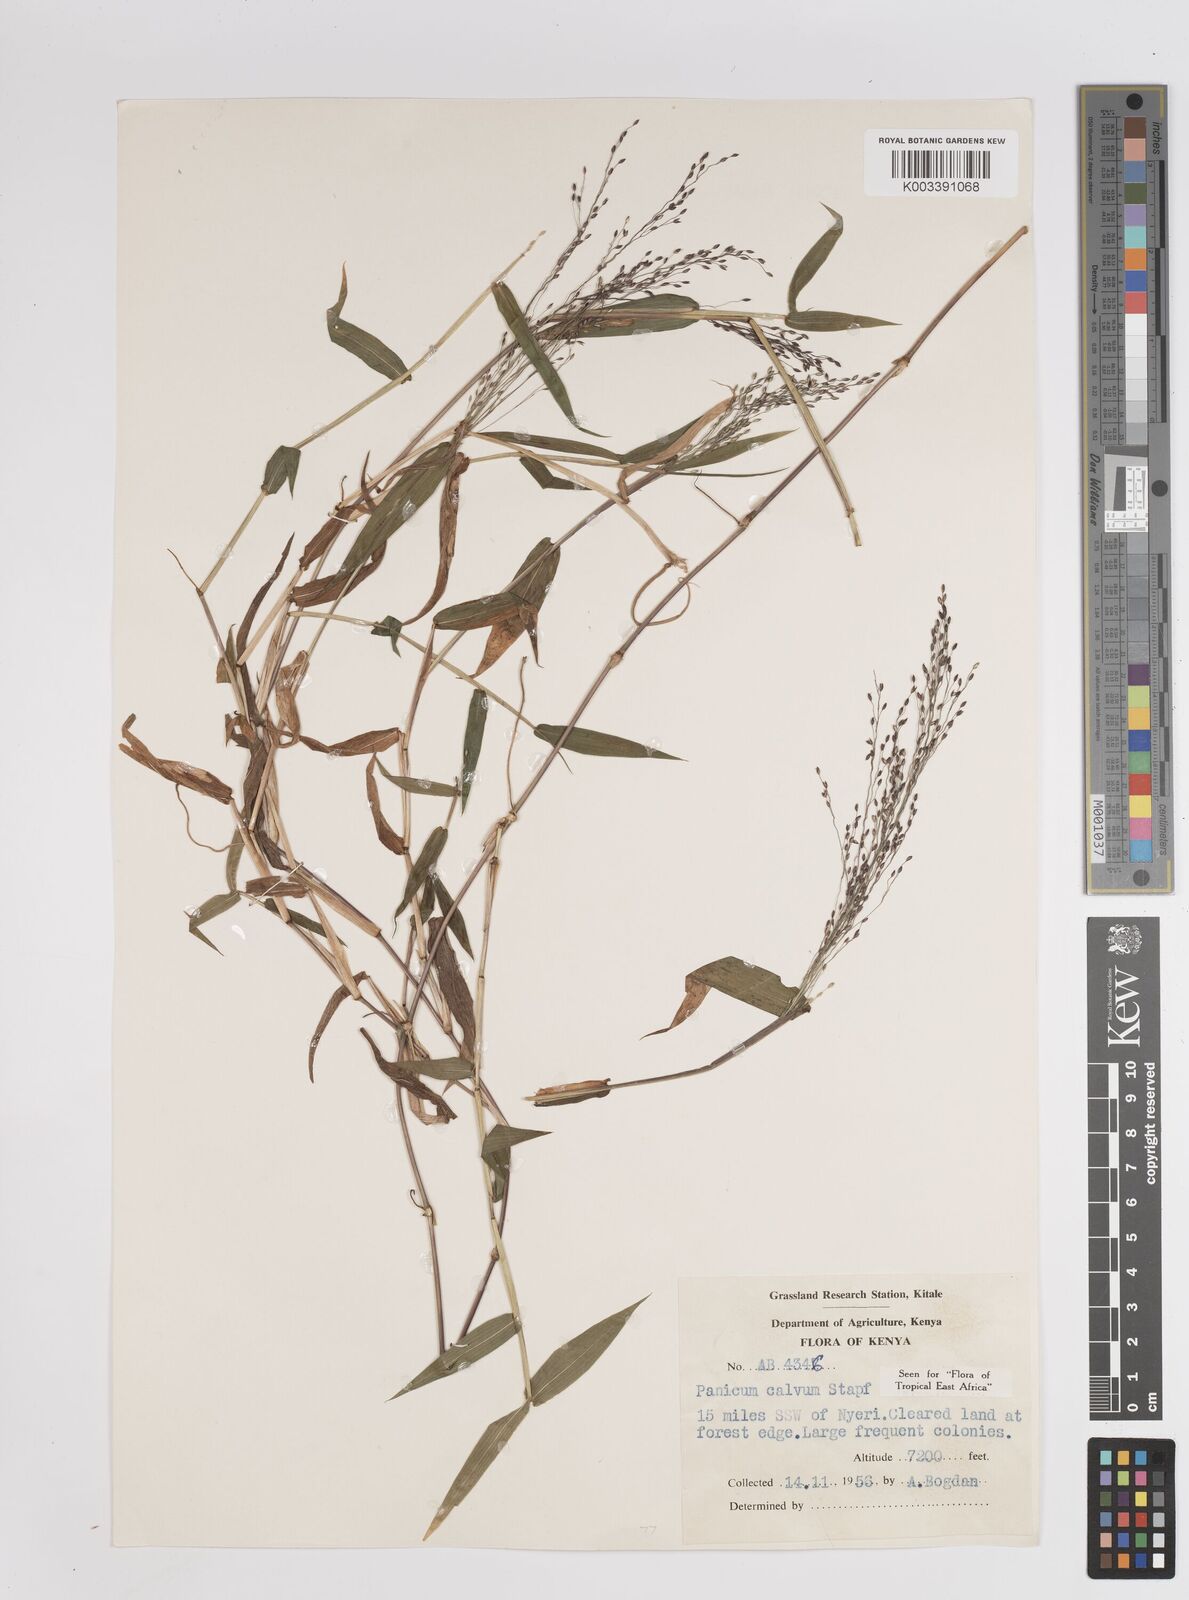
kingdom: Plantae
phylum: Tracheophyta
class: Liliopsida
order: Poales
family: Poaceae
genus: Panicum
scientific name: Panicum calvum
